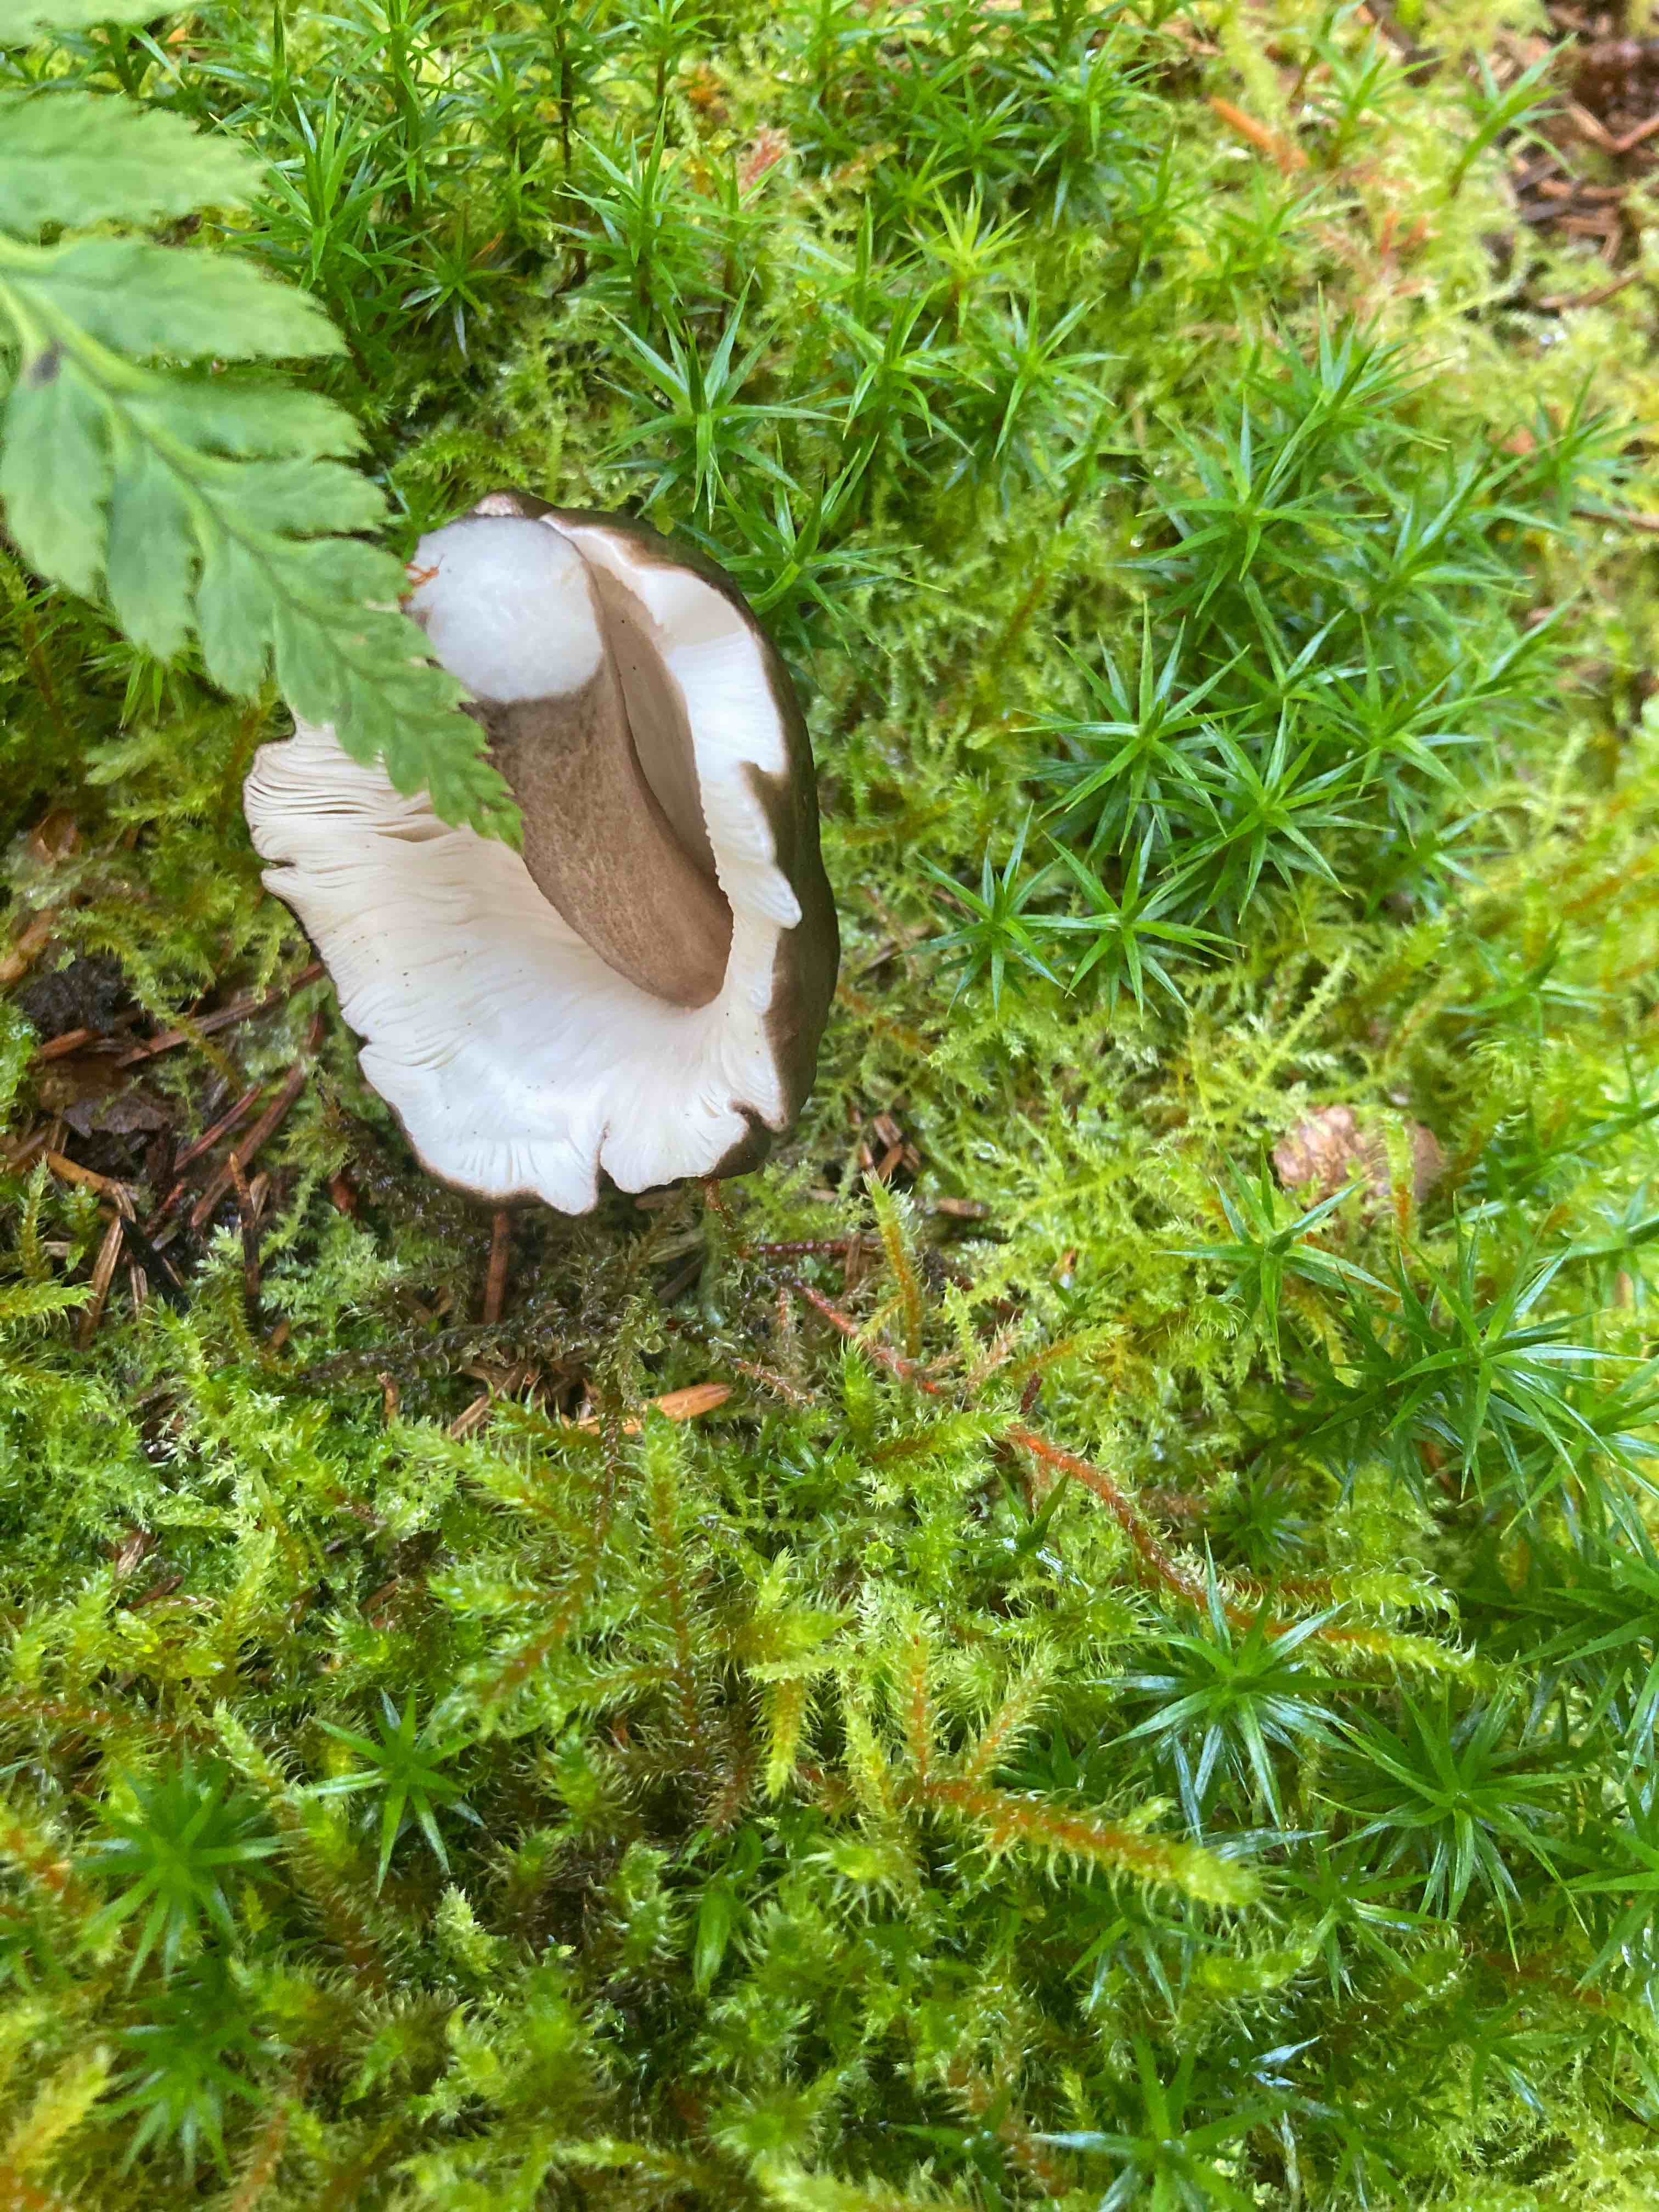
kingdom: Fungi
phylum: Basidiomycota
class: Agaricomycetes
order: Agaricales
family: Pluteaceae
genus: Pluteus
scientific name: Pluteus cervinus
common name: sodfarvet skærmhat
